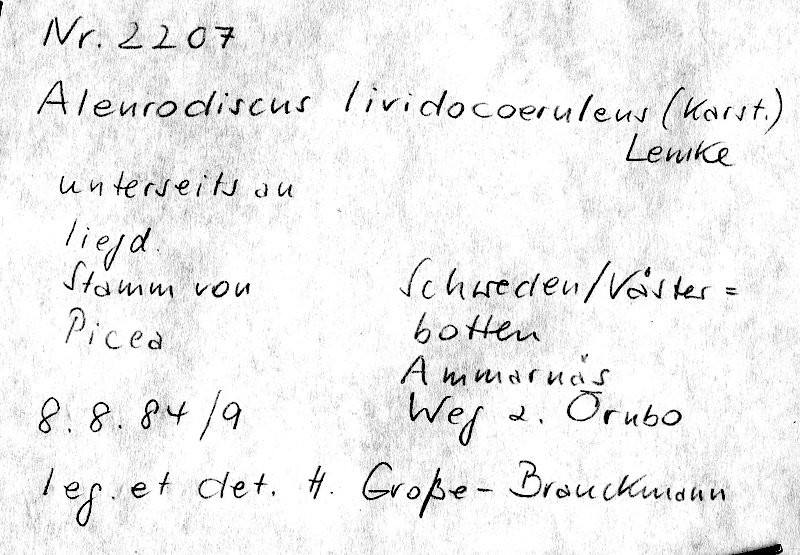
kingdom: Plantae
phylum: Tracheophyta
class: Pinopsida
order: Pinales
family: Pinaceae
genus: Picea
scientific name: Picea
